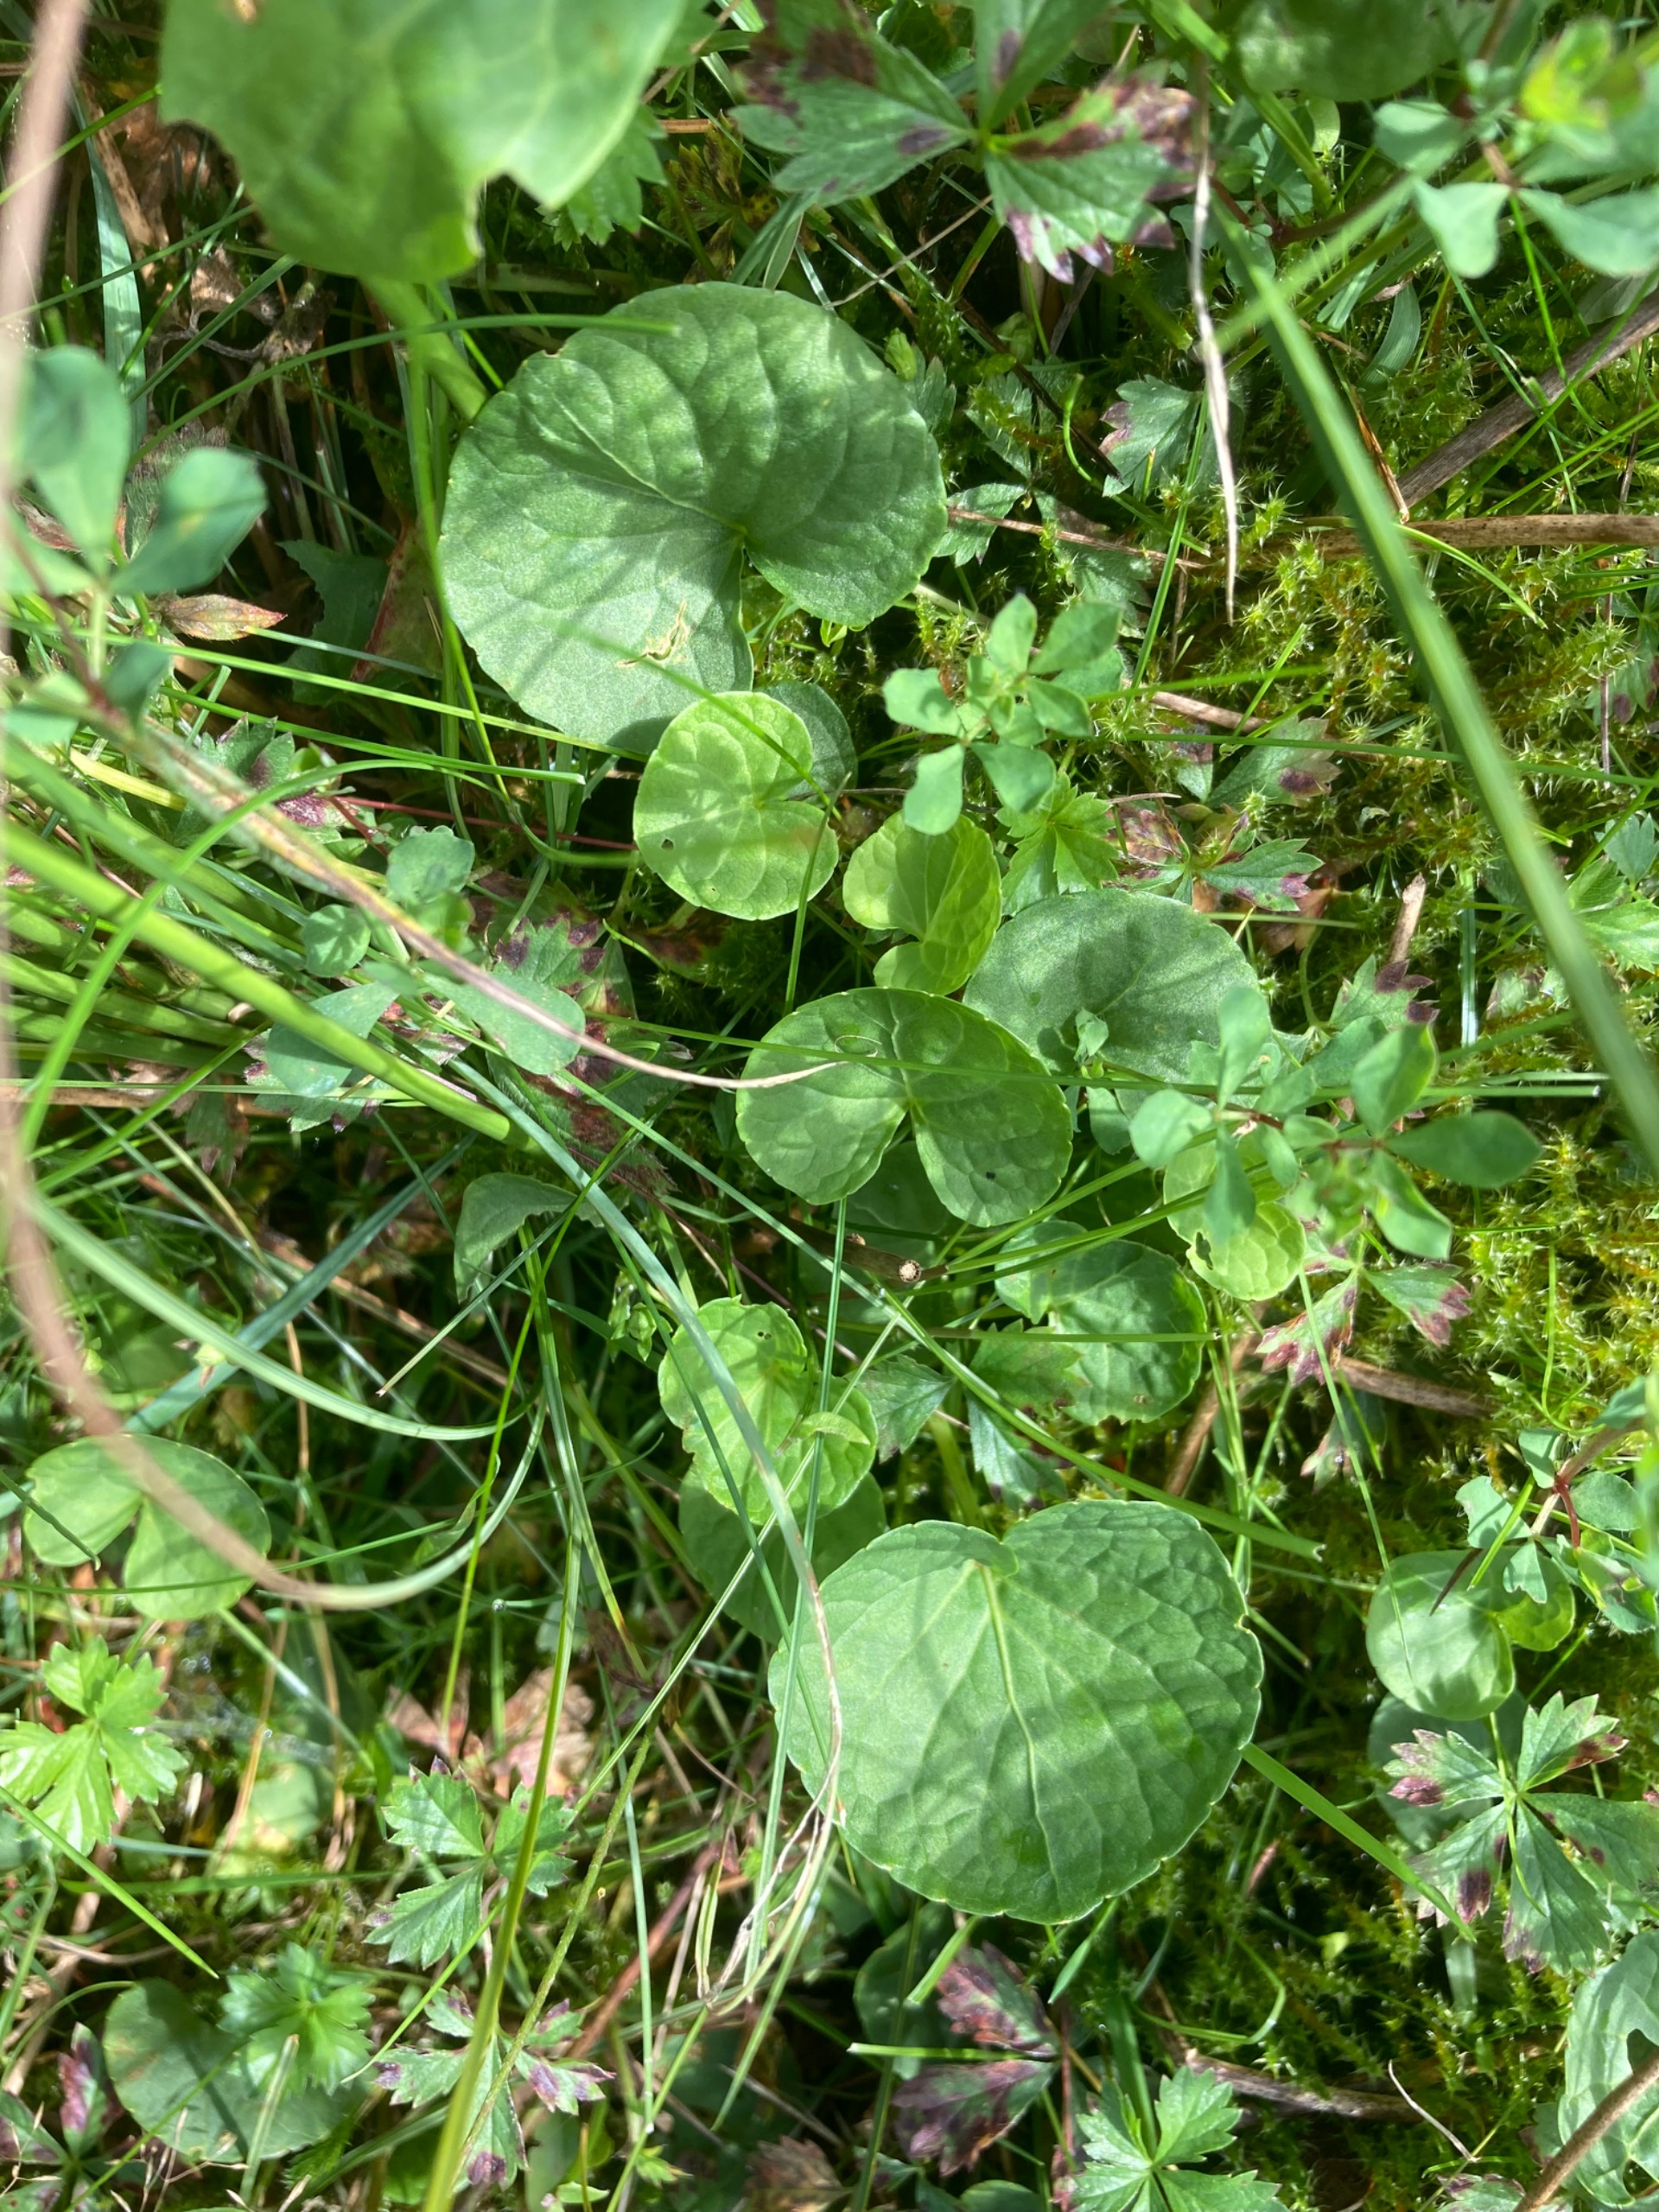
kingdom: Plantae
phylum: Tracheophyta
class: Magnoliopsida
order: Malpighiales
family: Violaceae
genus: Viola
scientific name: Viola palustris
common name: Eng-viol
